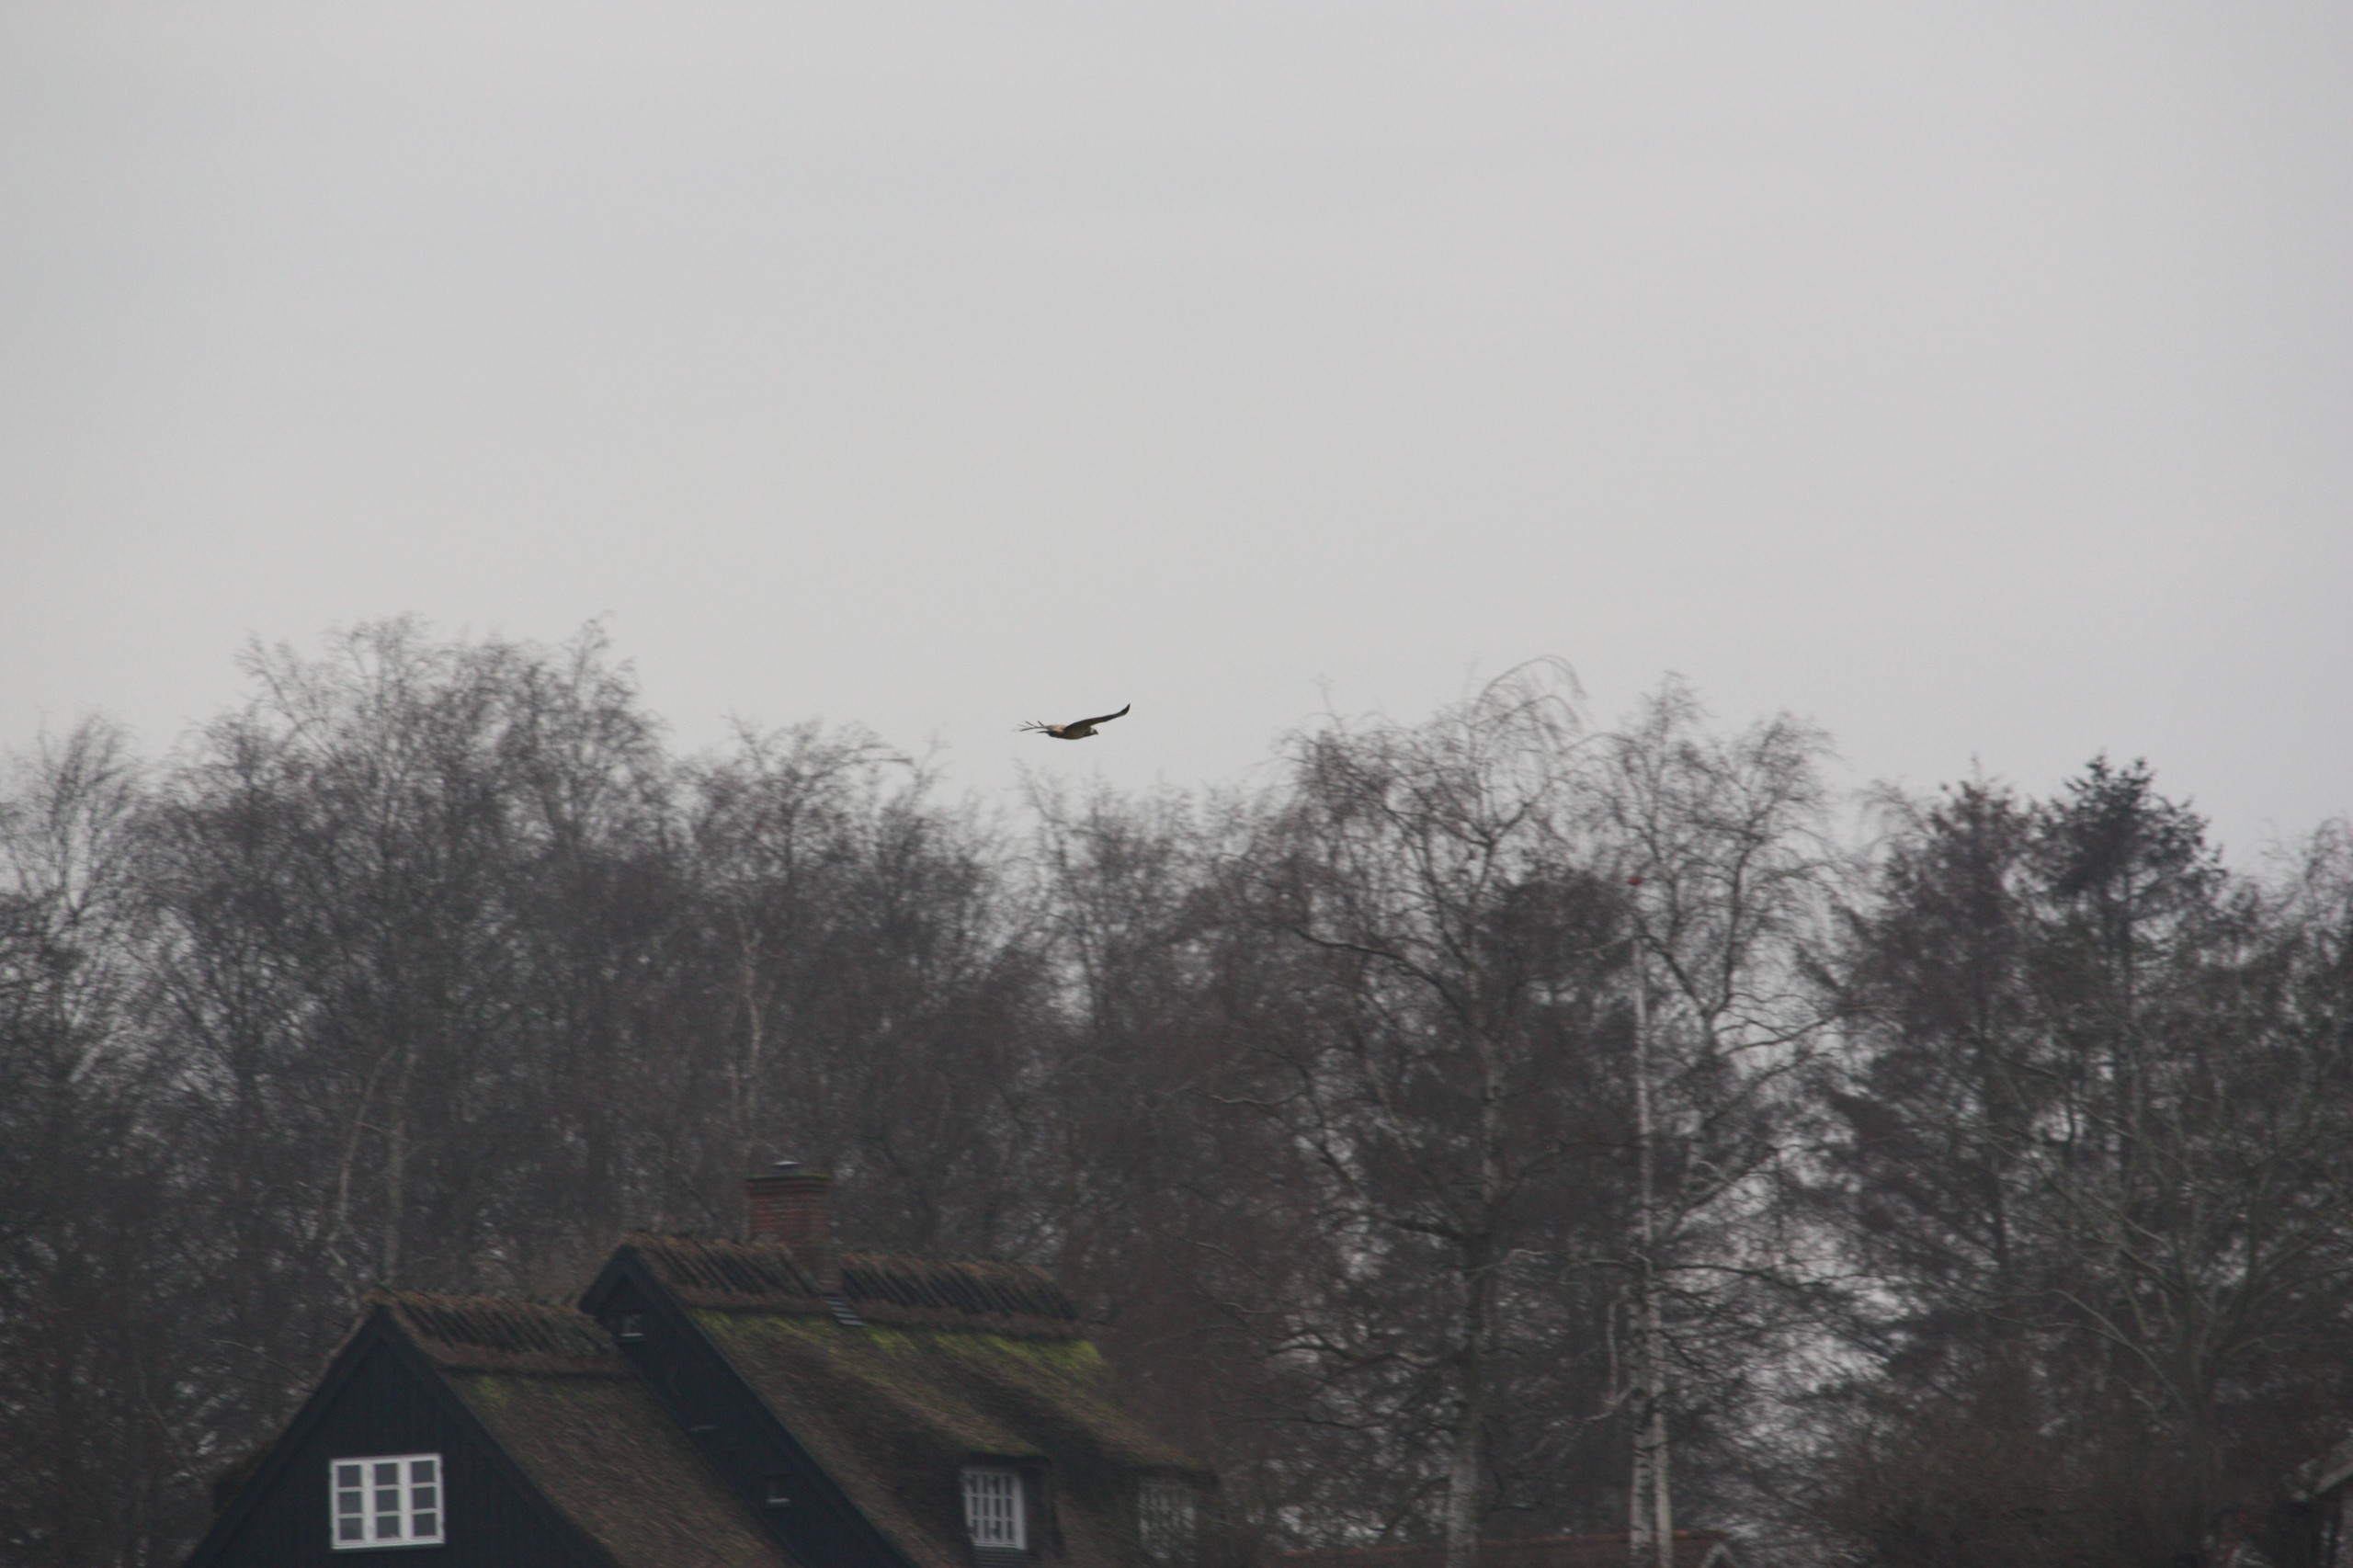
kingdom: Animalia
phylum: Chordata
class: Aves
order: Accipitriformes
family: Accipitridae
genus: Buteo
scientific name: Buteo buteo
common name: Musvåge
